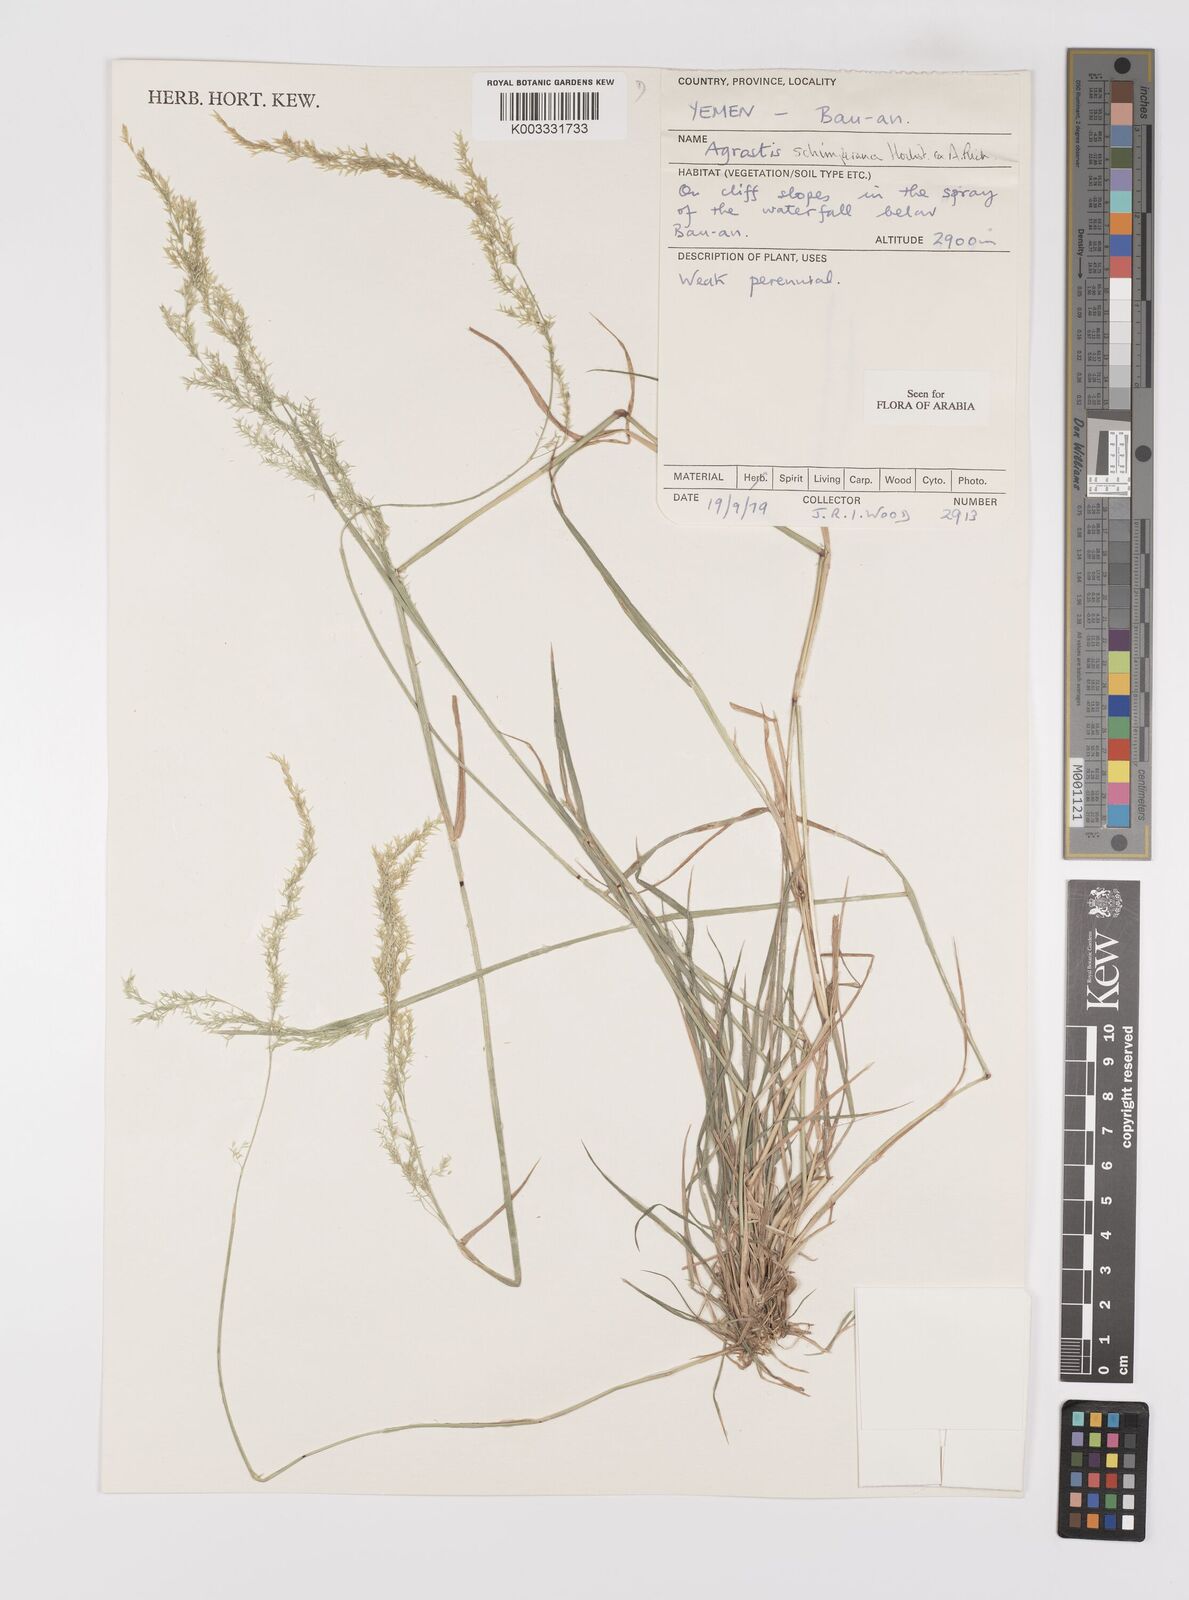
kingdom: Plantae
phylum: Tracheophyta
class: Liliopsida
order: Poales
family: Poaceae
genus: Polypogon
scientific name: Polypogon schimperianus
